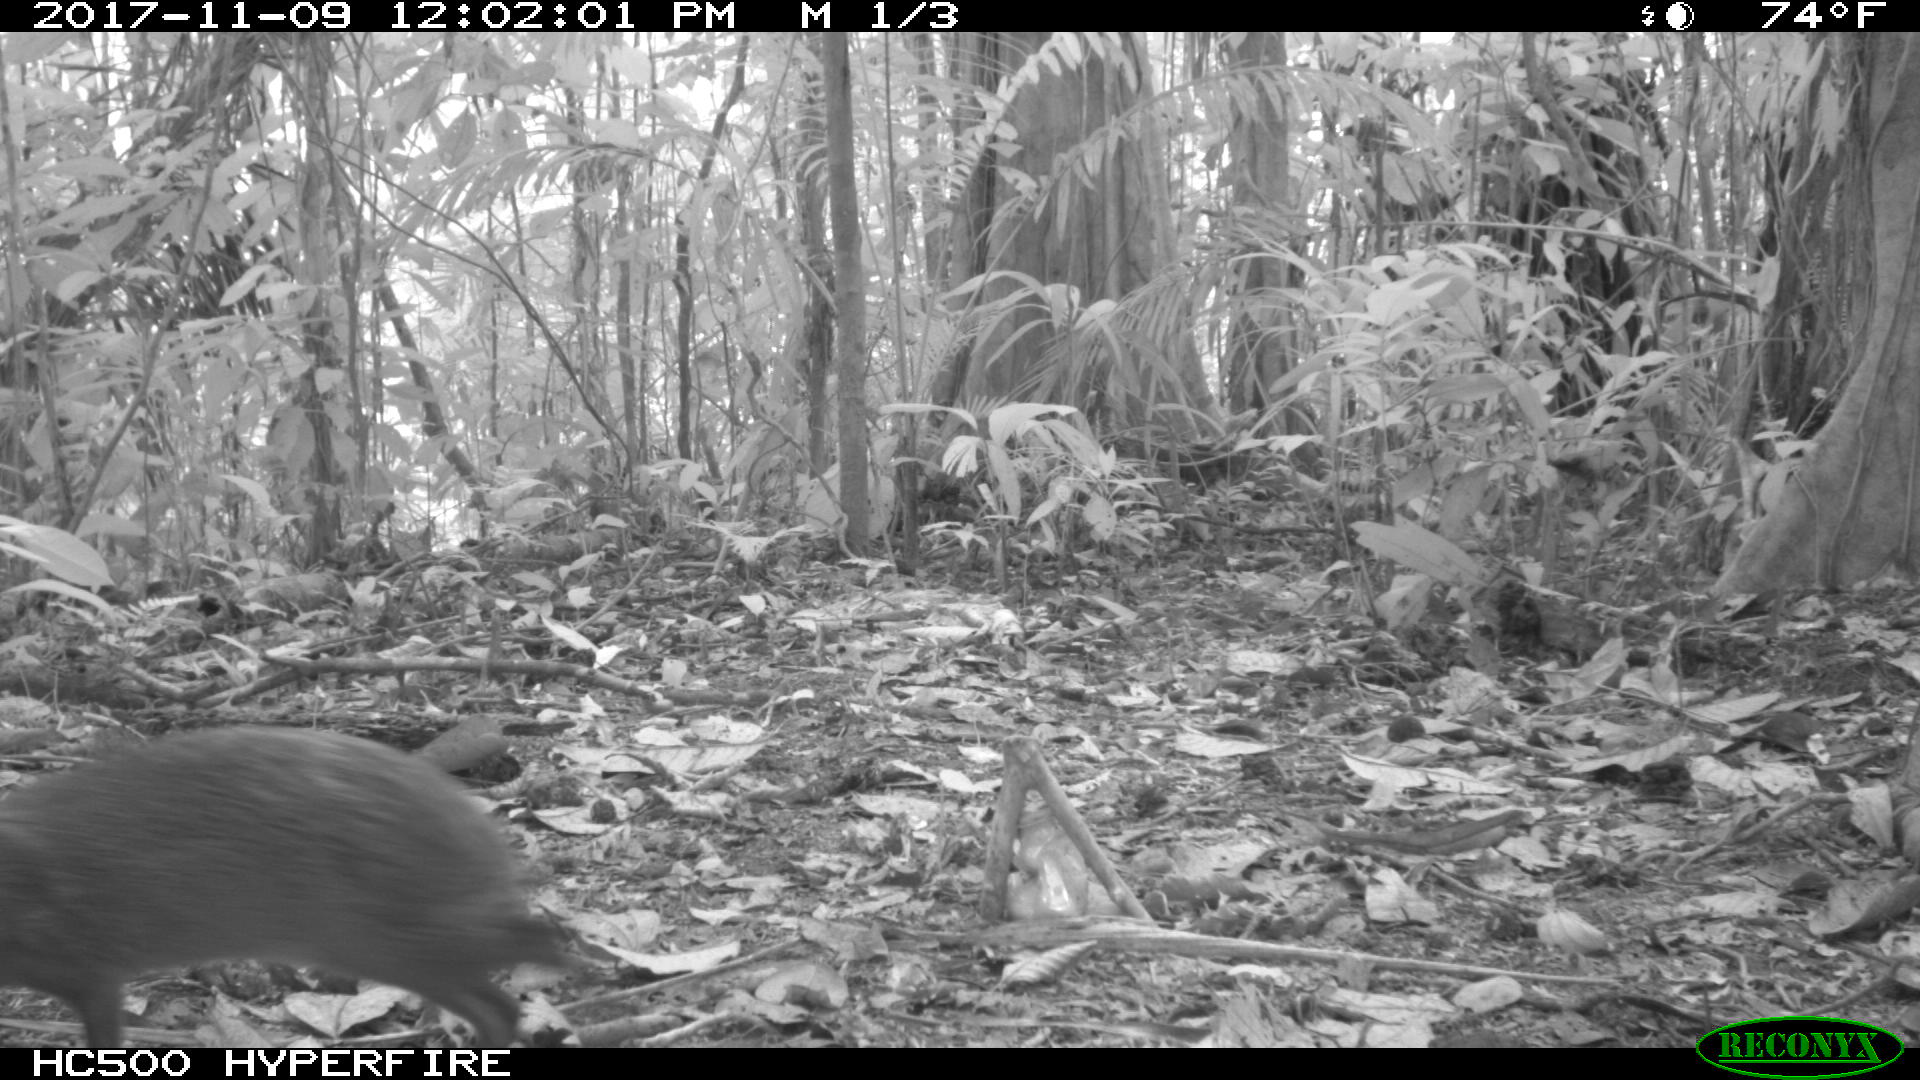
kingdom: Animalia
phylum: Chordata
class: Mammalia
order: Rodentia
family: Dasyproctidae
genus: Dasyprocta
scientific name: Dasyprocta punctata
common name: Central american agouti
